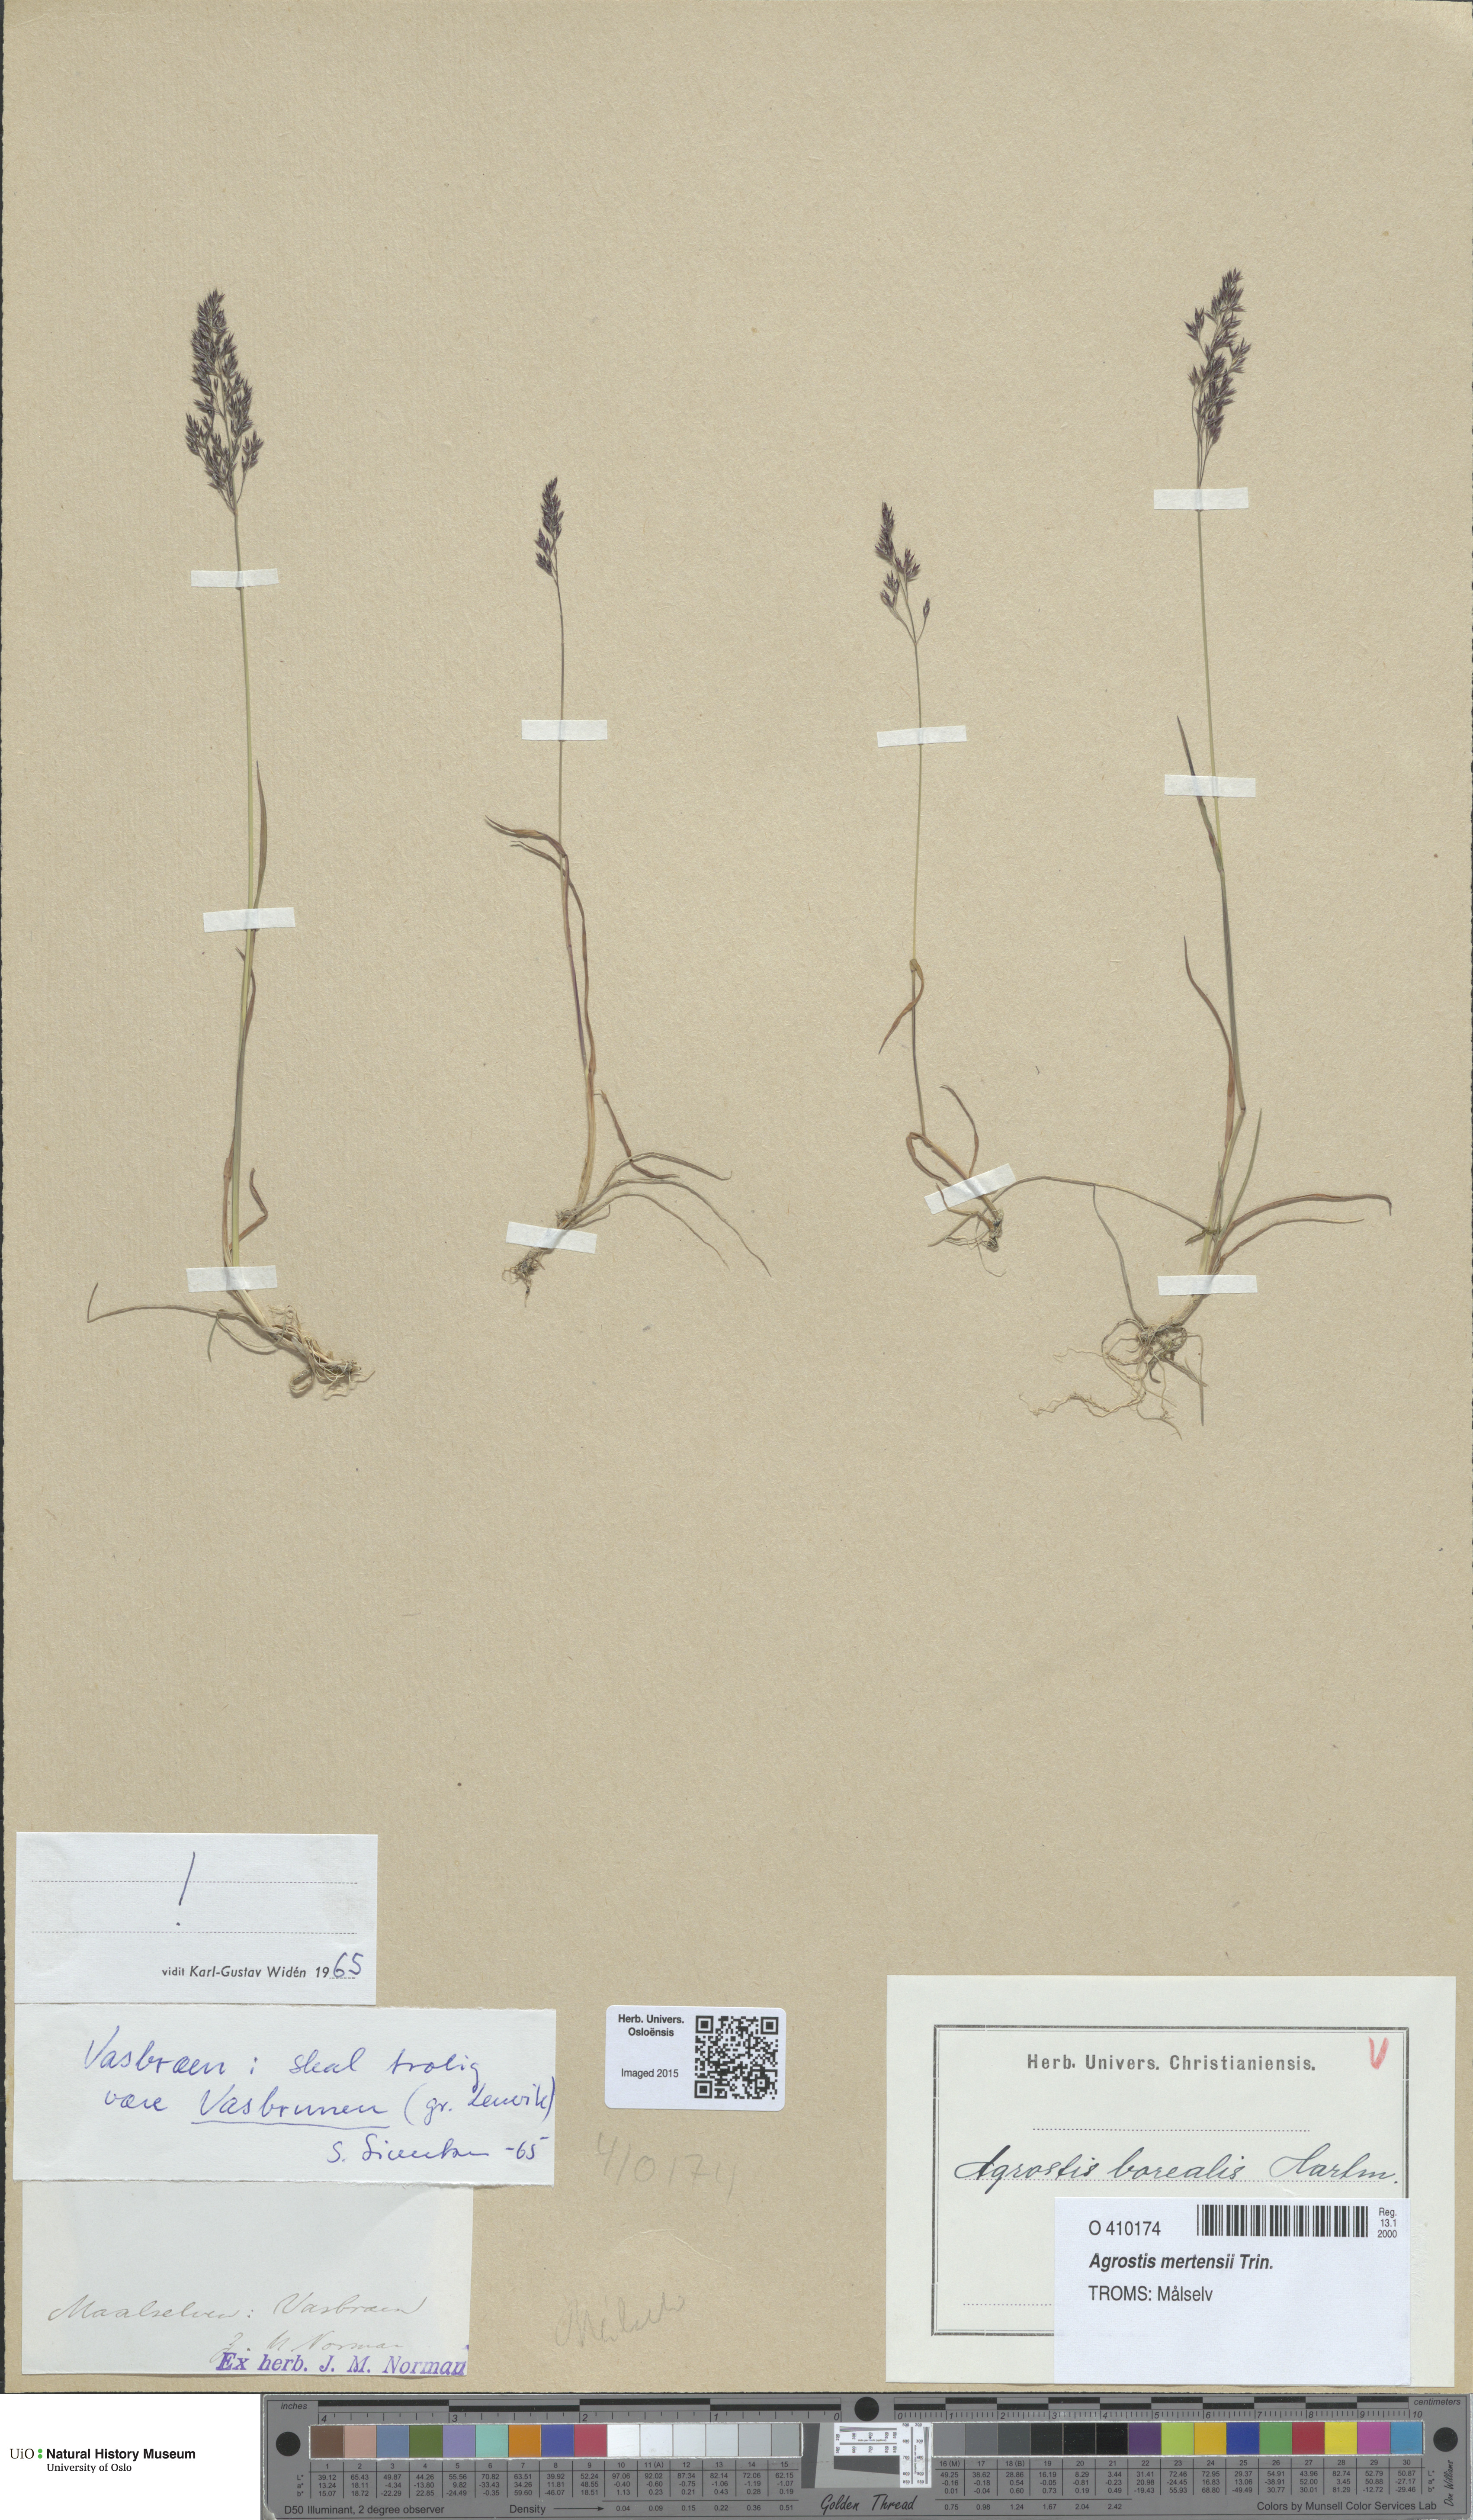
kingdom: Plantae
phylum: Tracheophyta
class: Liliopsida
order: Poales
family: Poaceae
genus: Agrostis
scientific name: Agrostis mertensii
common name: Northern bent
